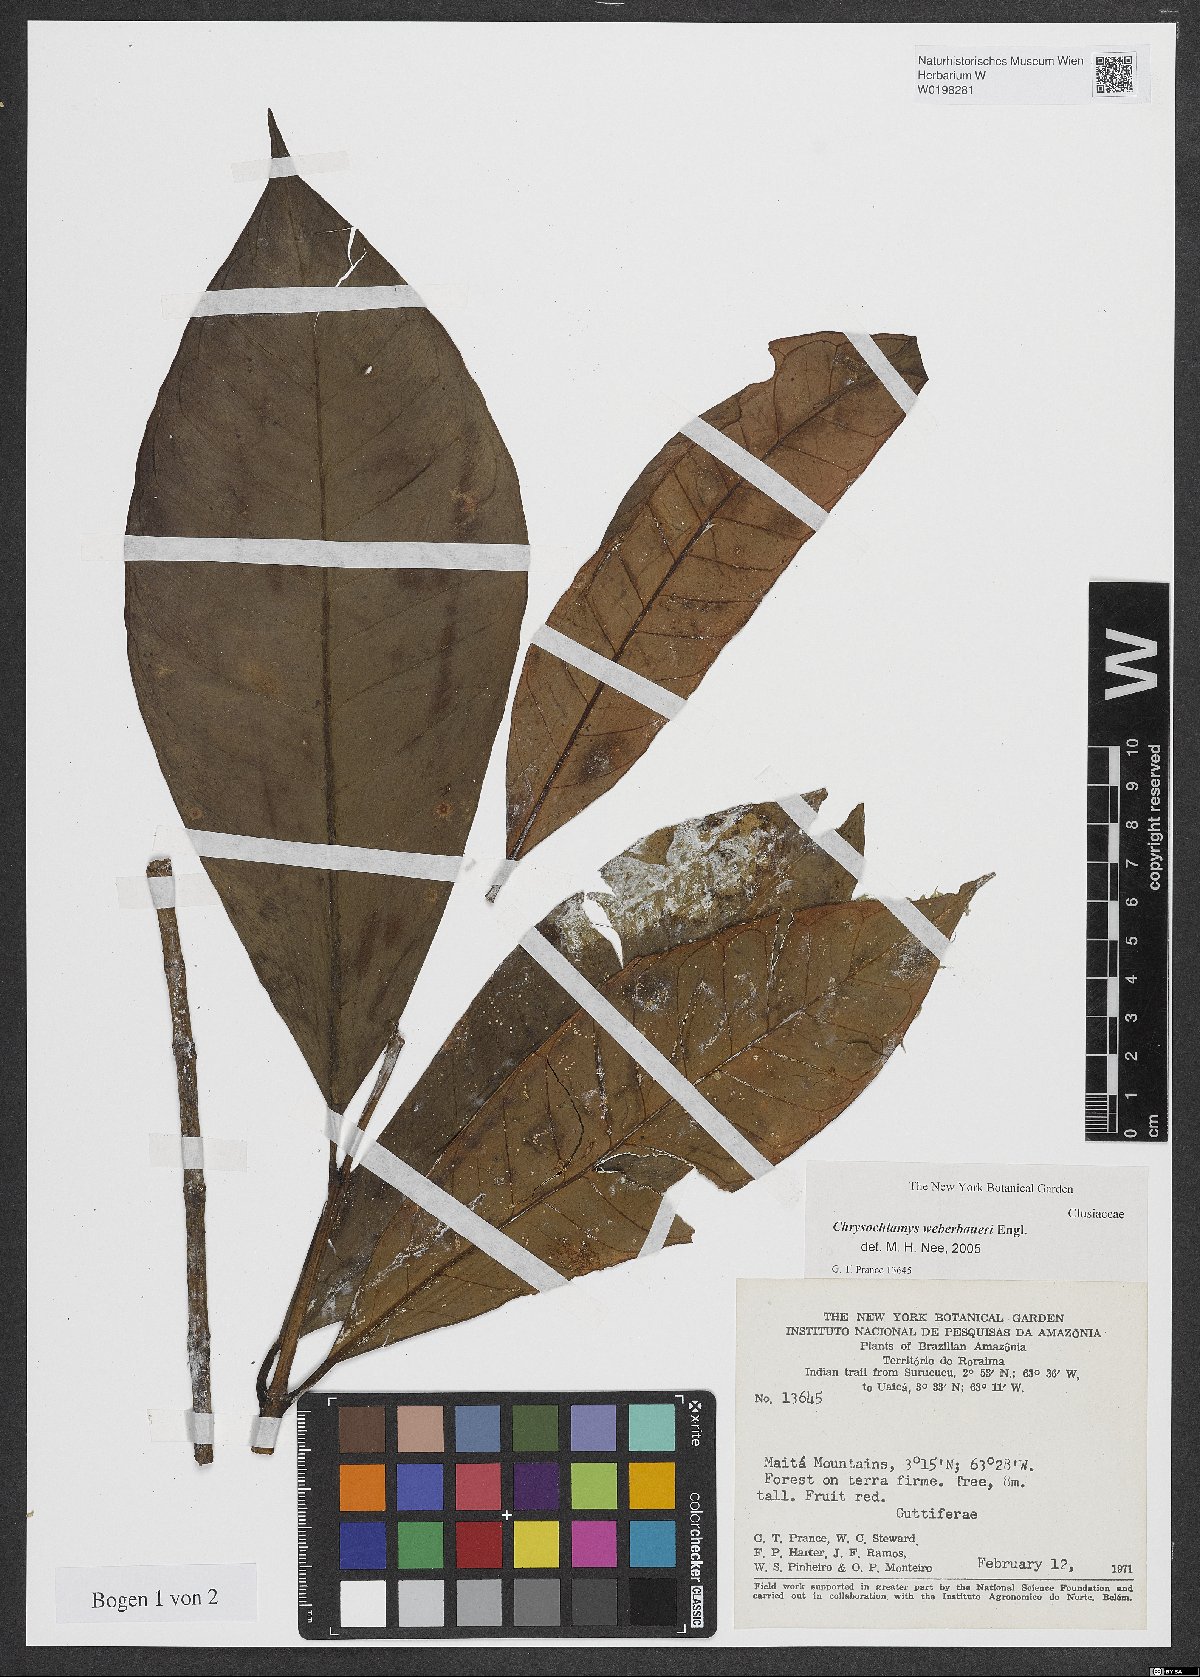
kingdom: Plantae
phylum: Tracheophyta
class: Magnoliopsida
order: Malpighiales
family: Clusiaceae
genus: Chrysochlamys
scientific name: Chrysochlamys weberbaueri
